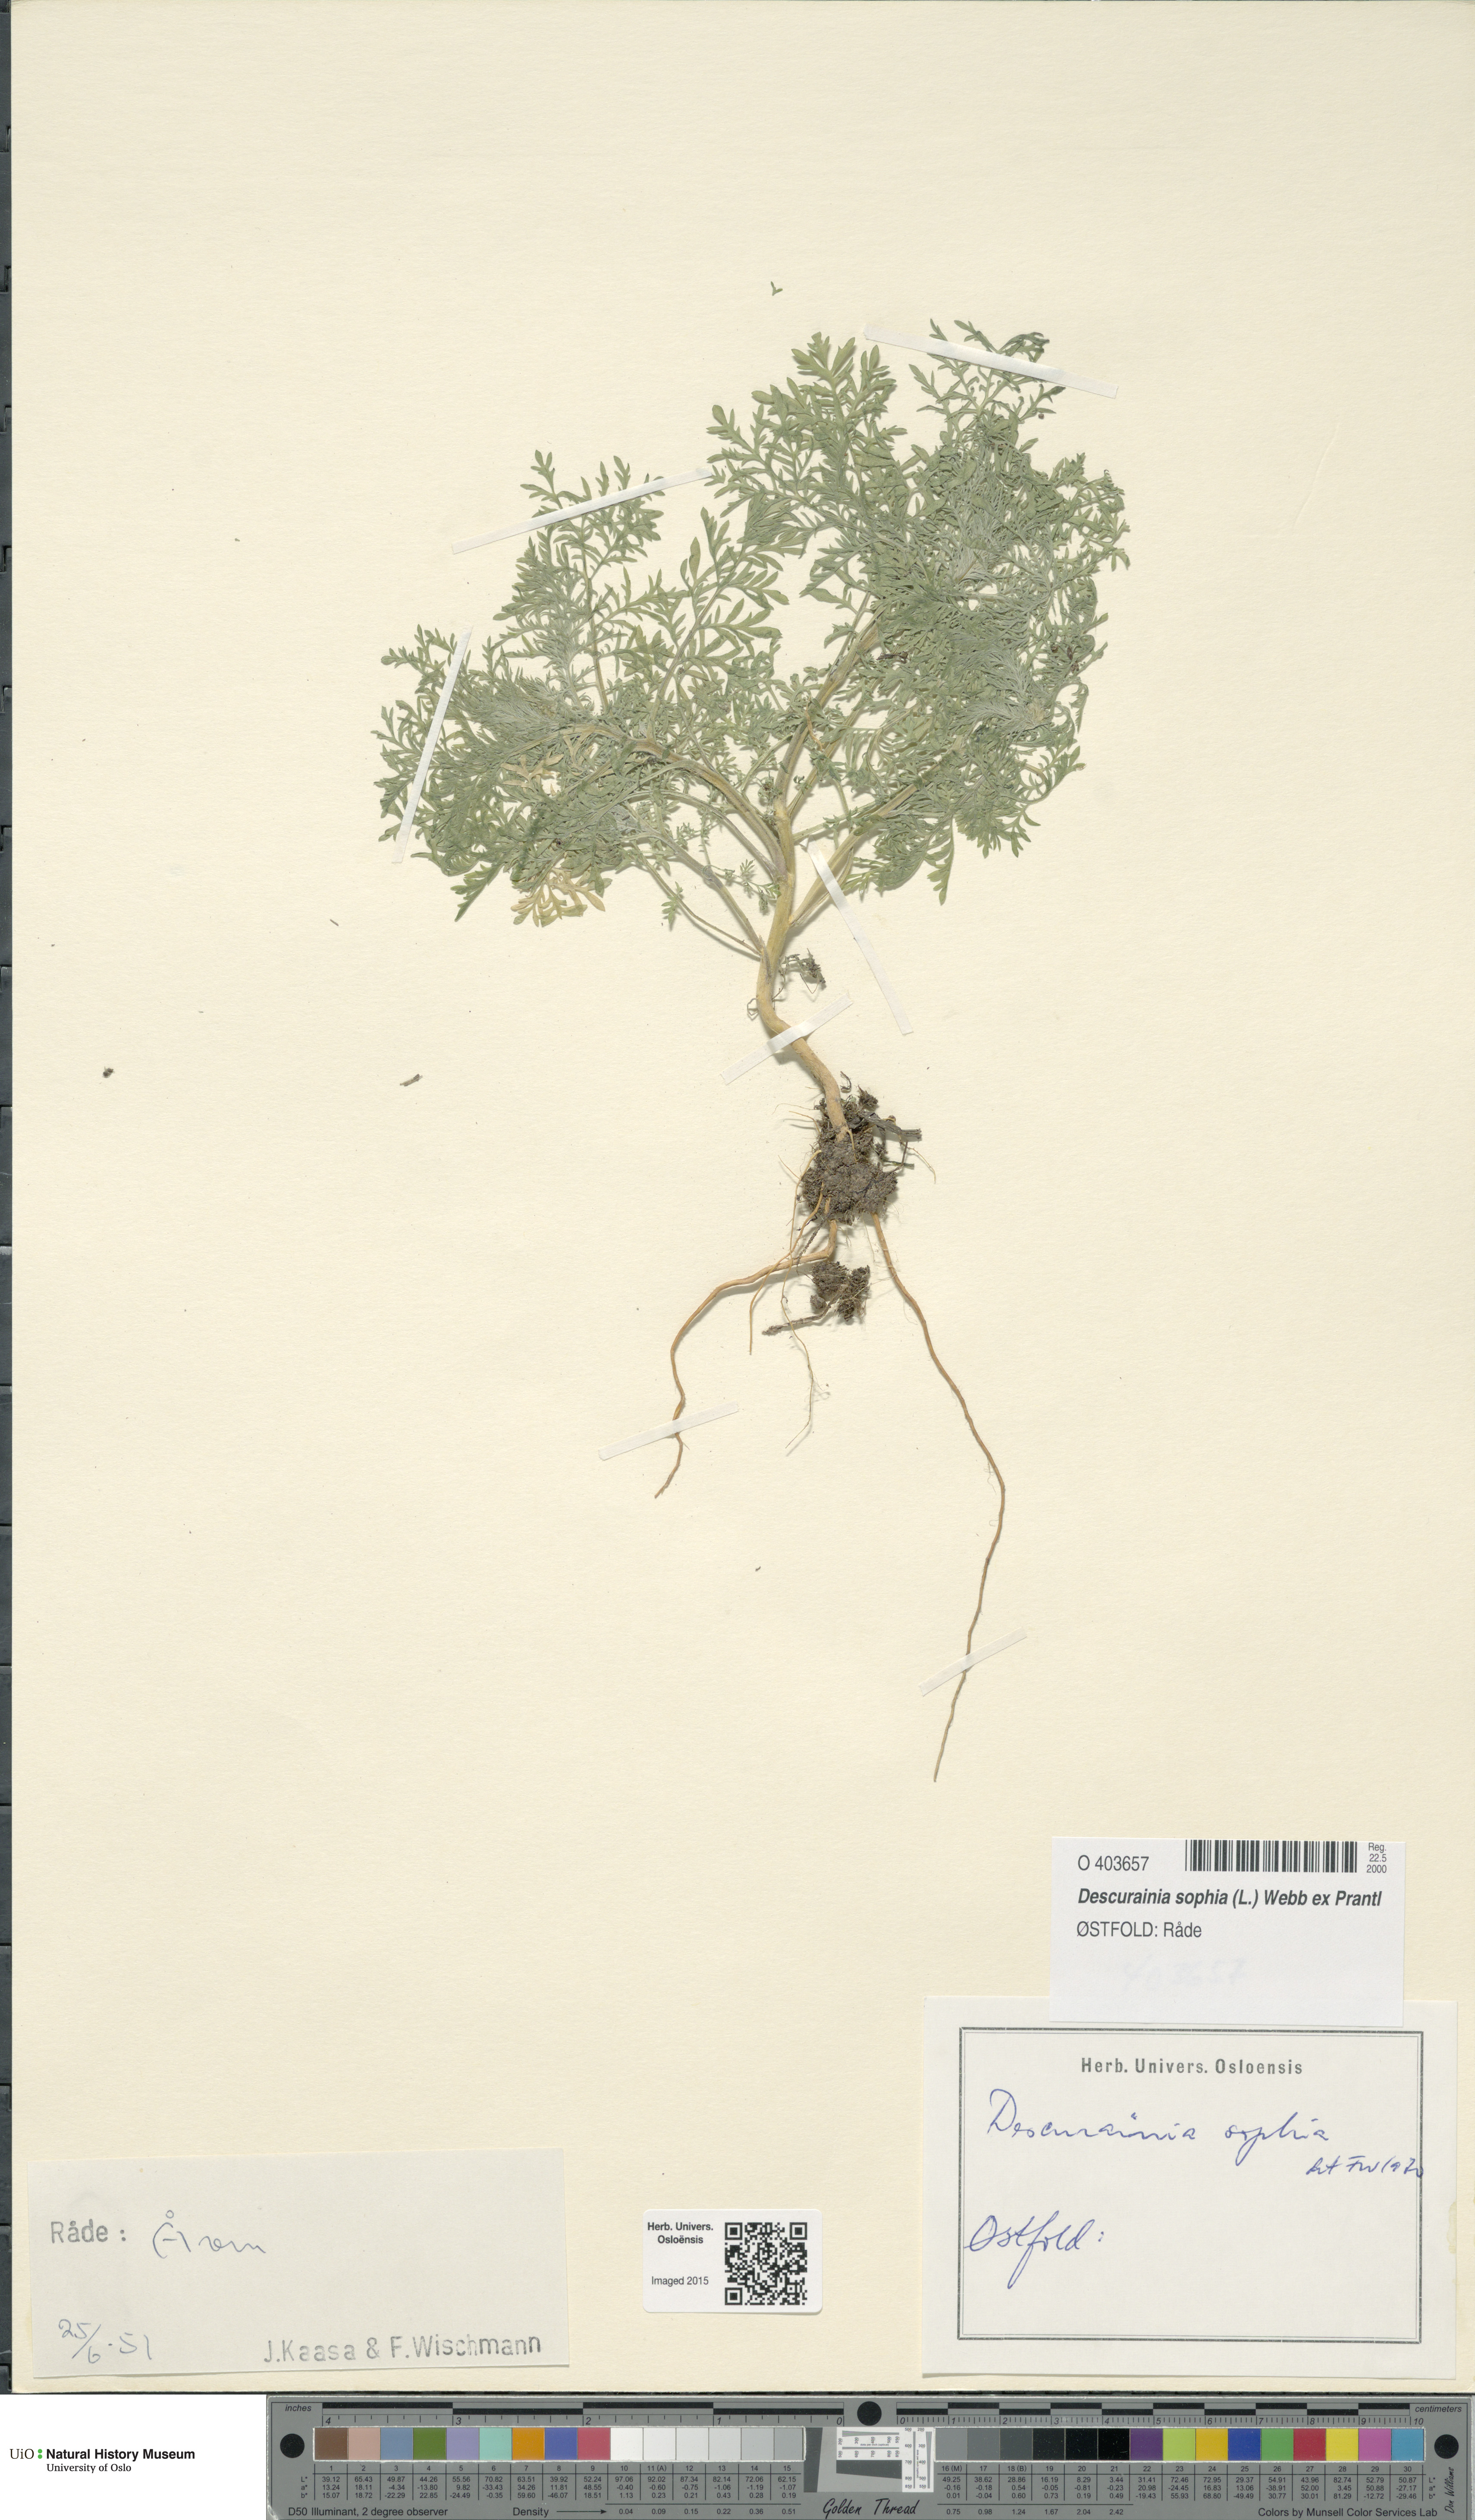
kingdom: Plantae
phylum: Tracheophyta
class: Magnoliopsida
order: Brassicales
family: Brassicaceae
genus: Descurainia
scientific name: Descurainia sophia
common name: Flixweed
